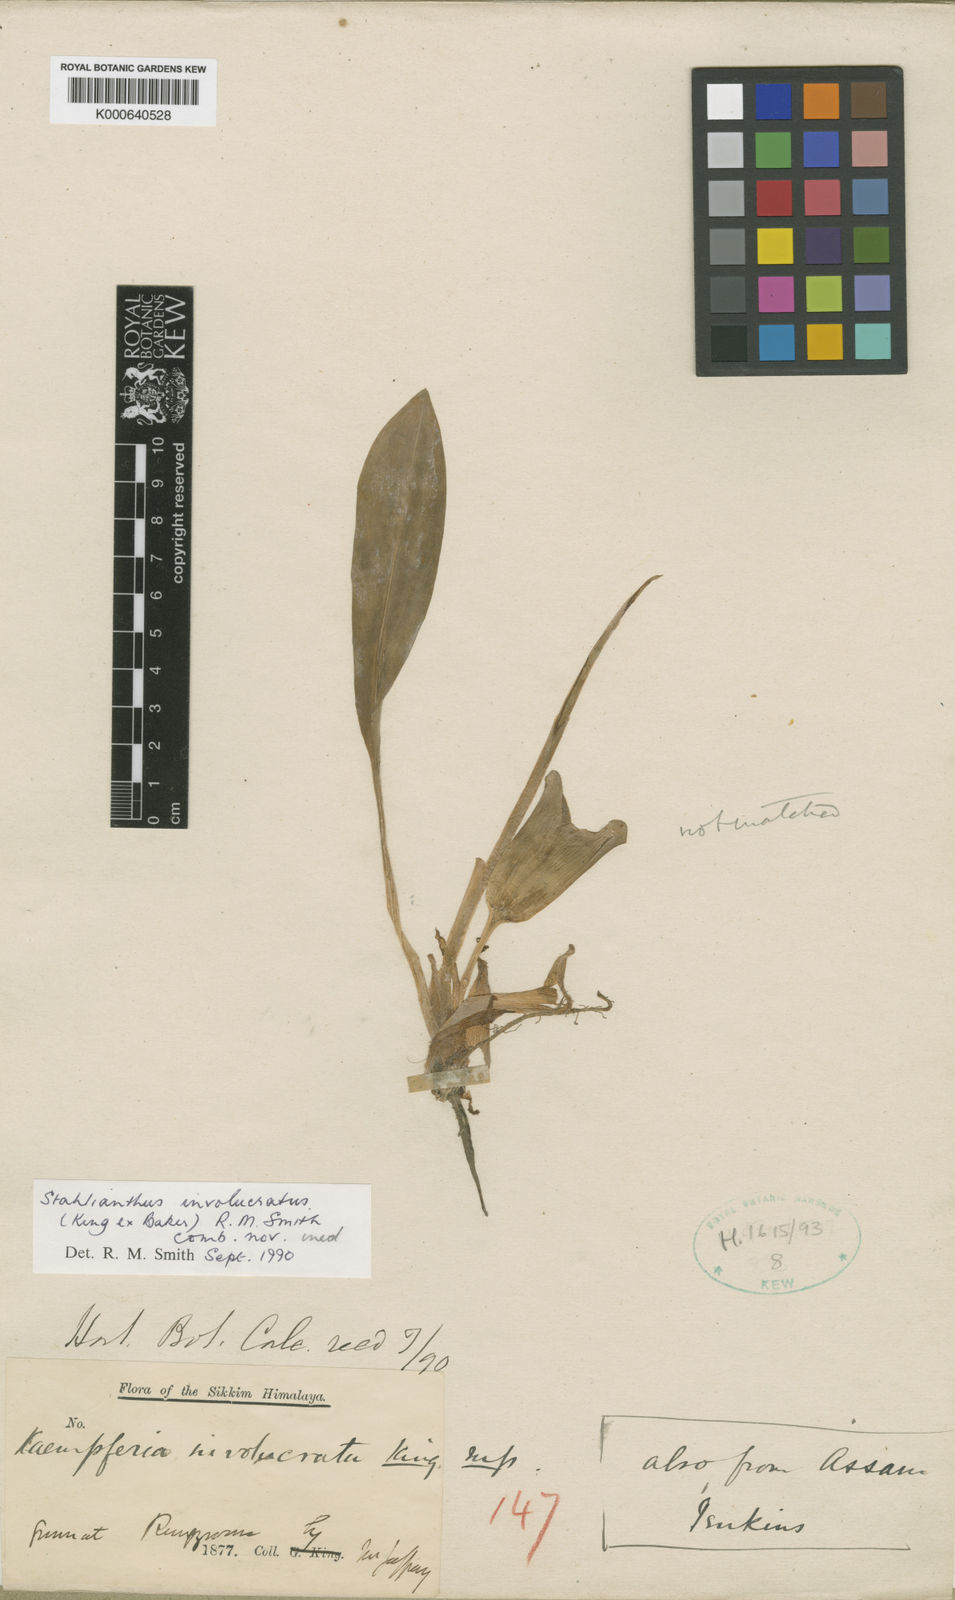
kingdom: Plantae
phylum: Tracheophyta
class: Liliopsida
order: Zingiberales
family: Zingiberaceae
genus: Curcuma
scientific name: Curcuma involucrata
